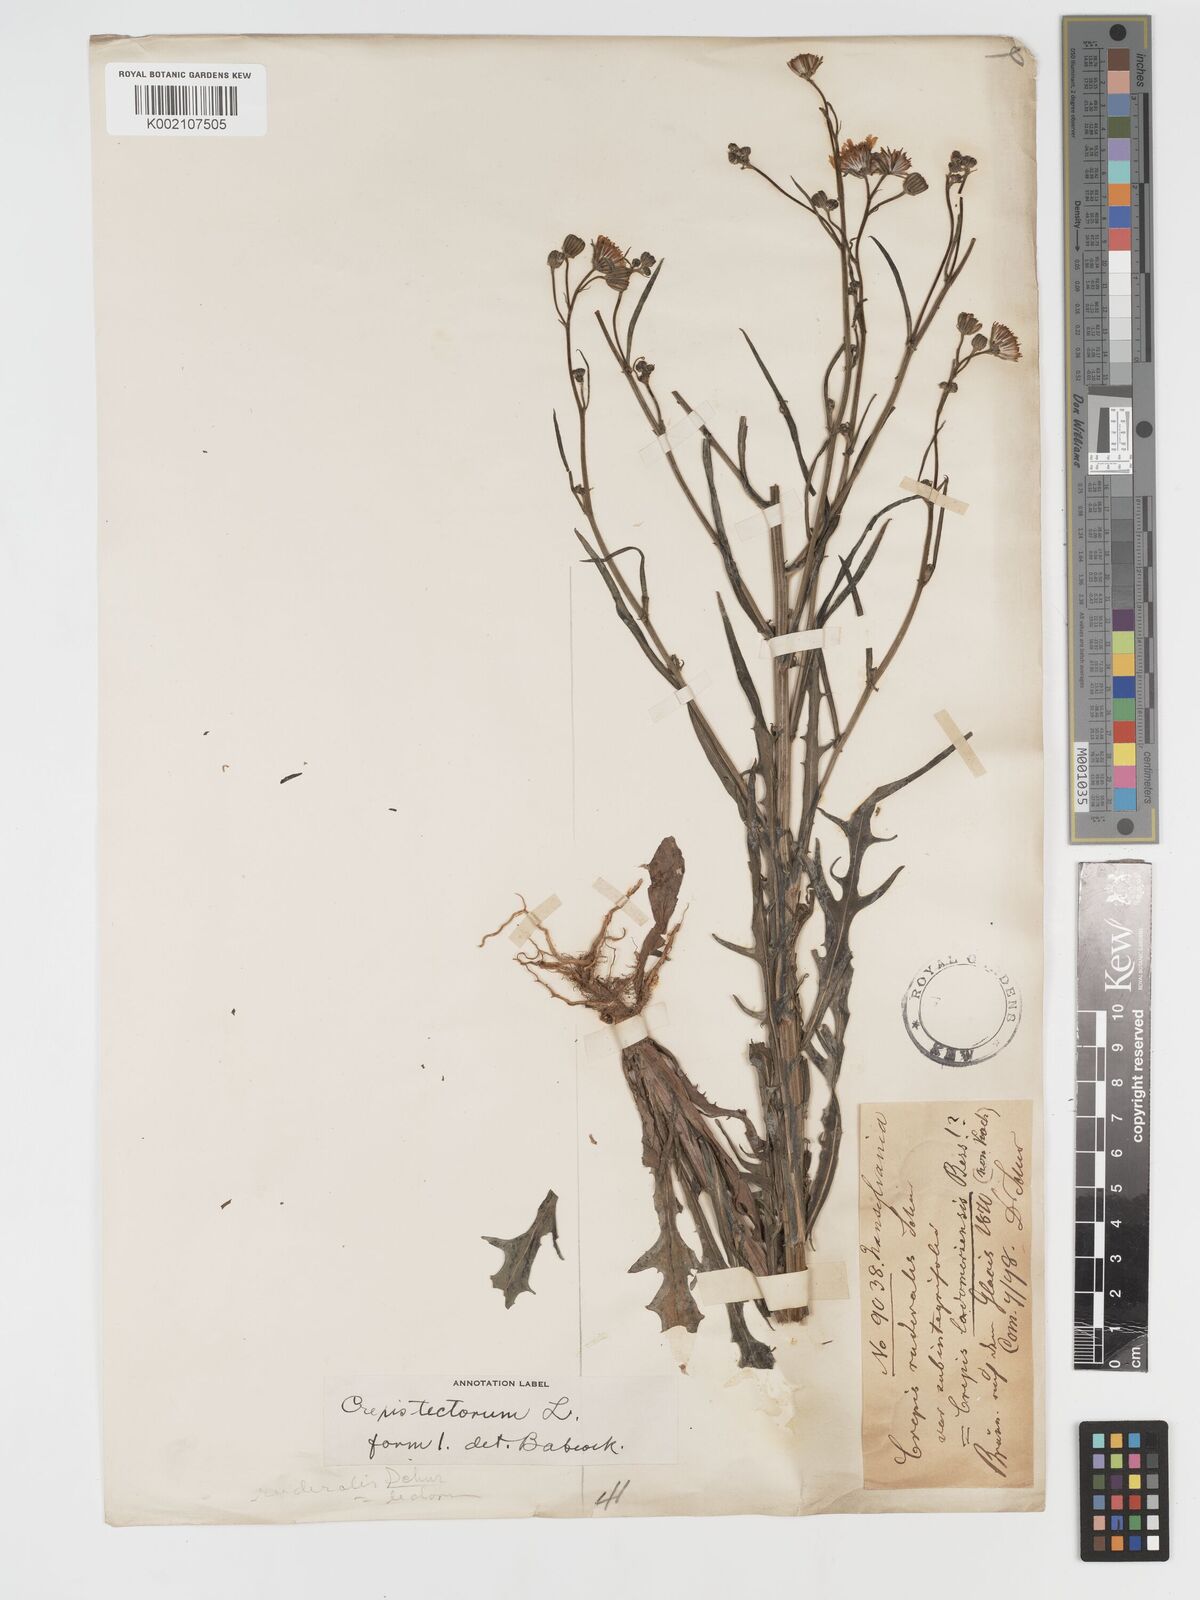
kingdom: Plantae
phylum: Tracheophyta
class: Magnoliopsida
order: Asterales
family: Asteraceae
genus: Crepis
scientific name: Crepis tectorum
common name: Narrow-leaved hawk's-beard
